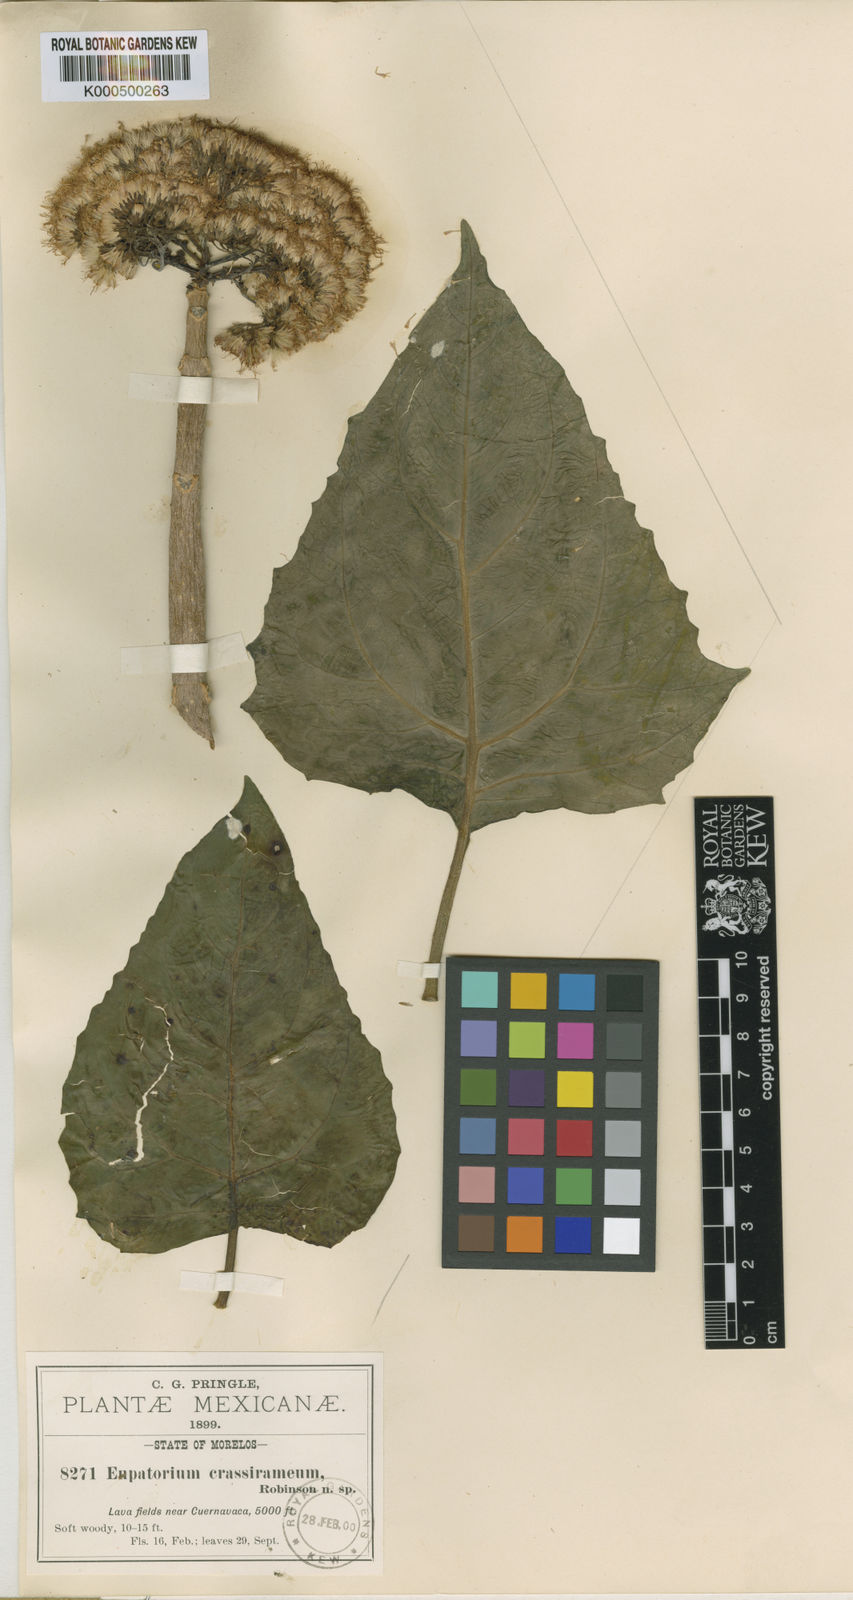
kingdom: Plantae
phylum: Tracheophyta
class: Magnoliopsida
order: Asterales
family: Asteraceae
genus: Ageratina
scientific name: Ageratina crassiramea
